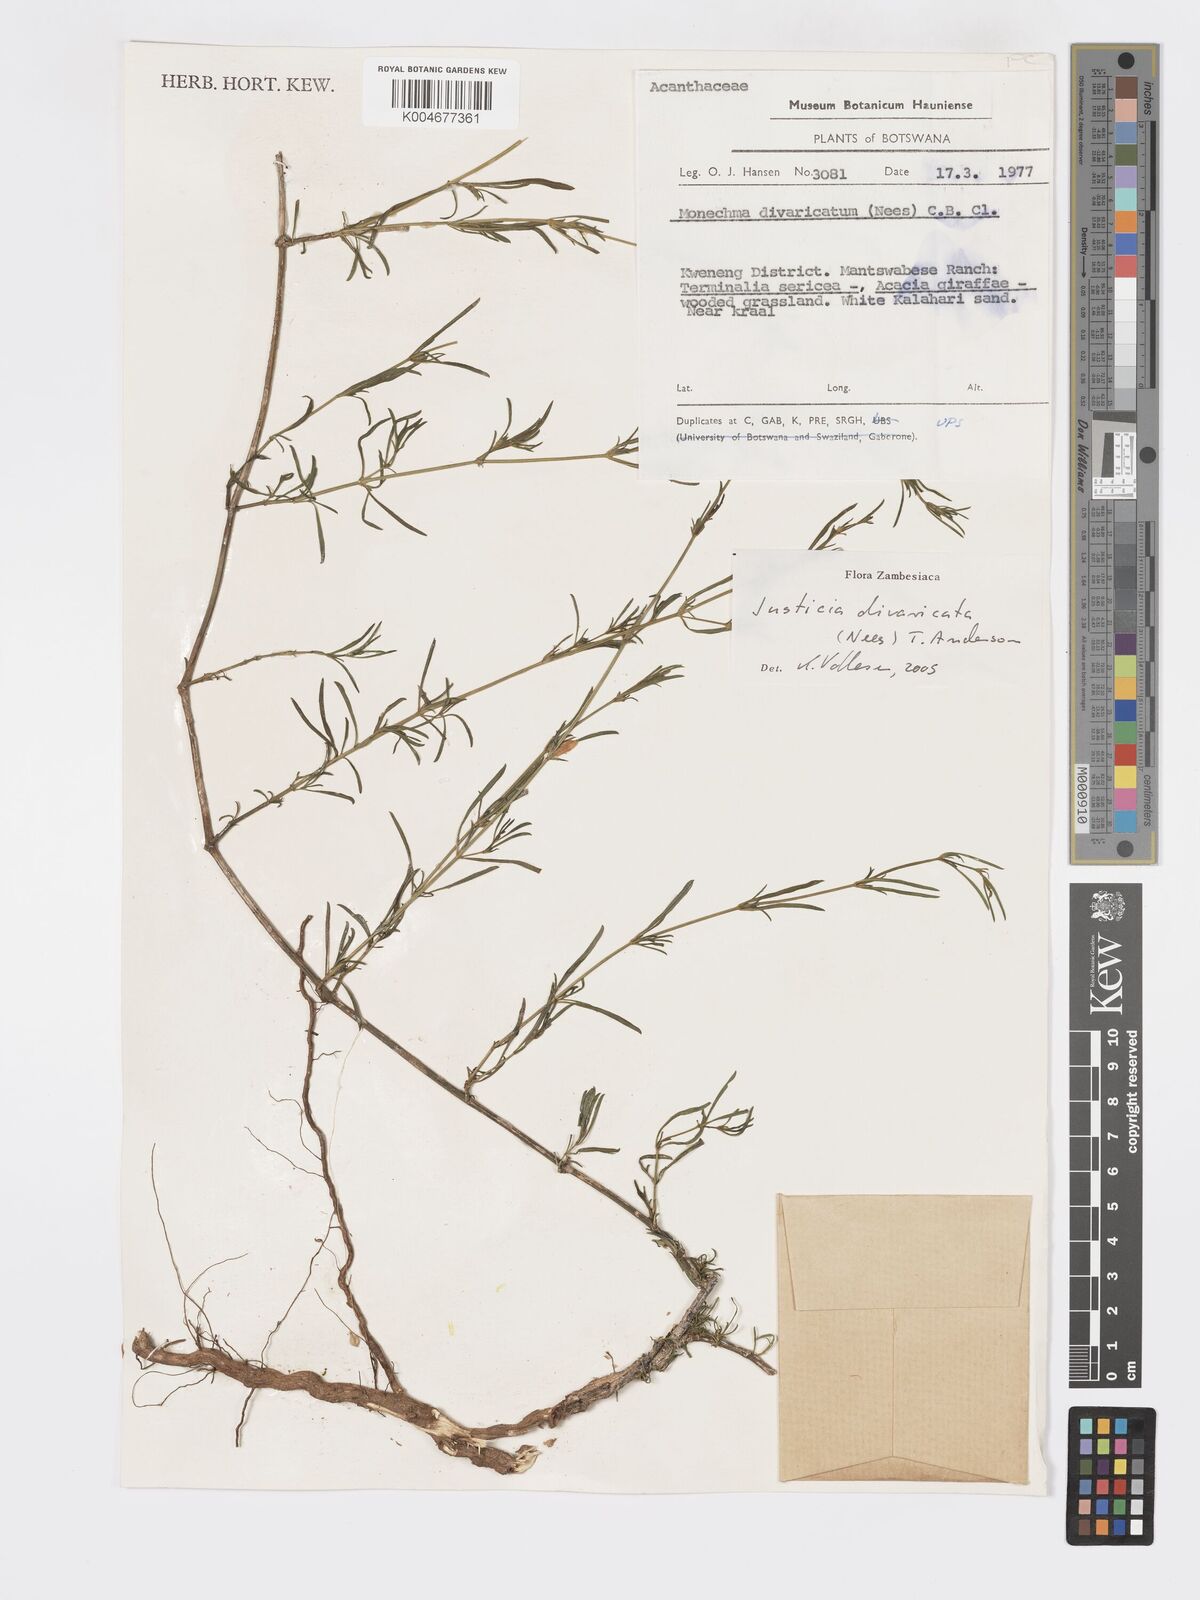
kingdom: Plantae
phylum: Tracheophyta
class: Magnoliopsida
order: Lamiales
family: Acanthaceae
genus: Pogonospermum
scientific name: Pogonospermum
